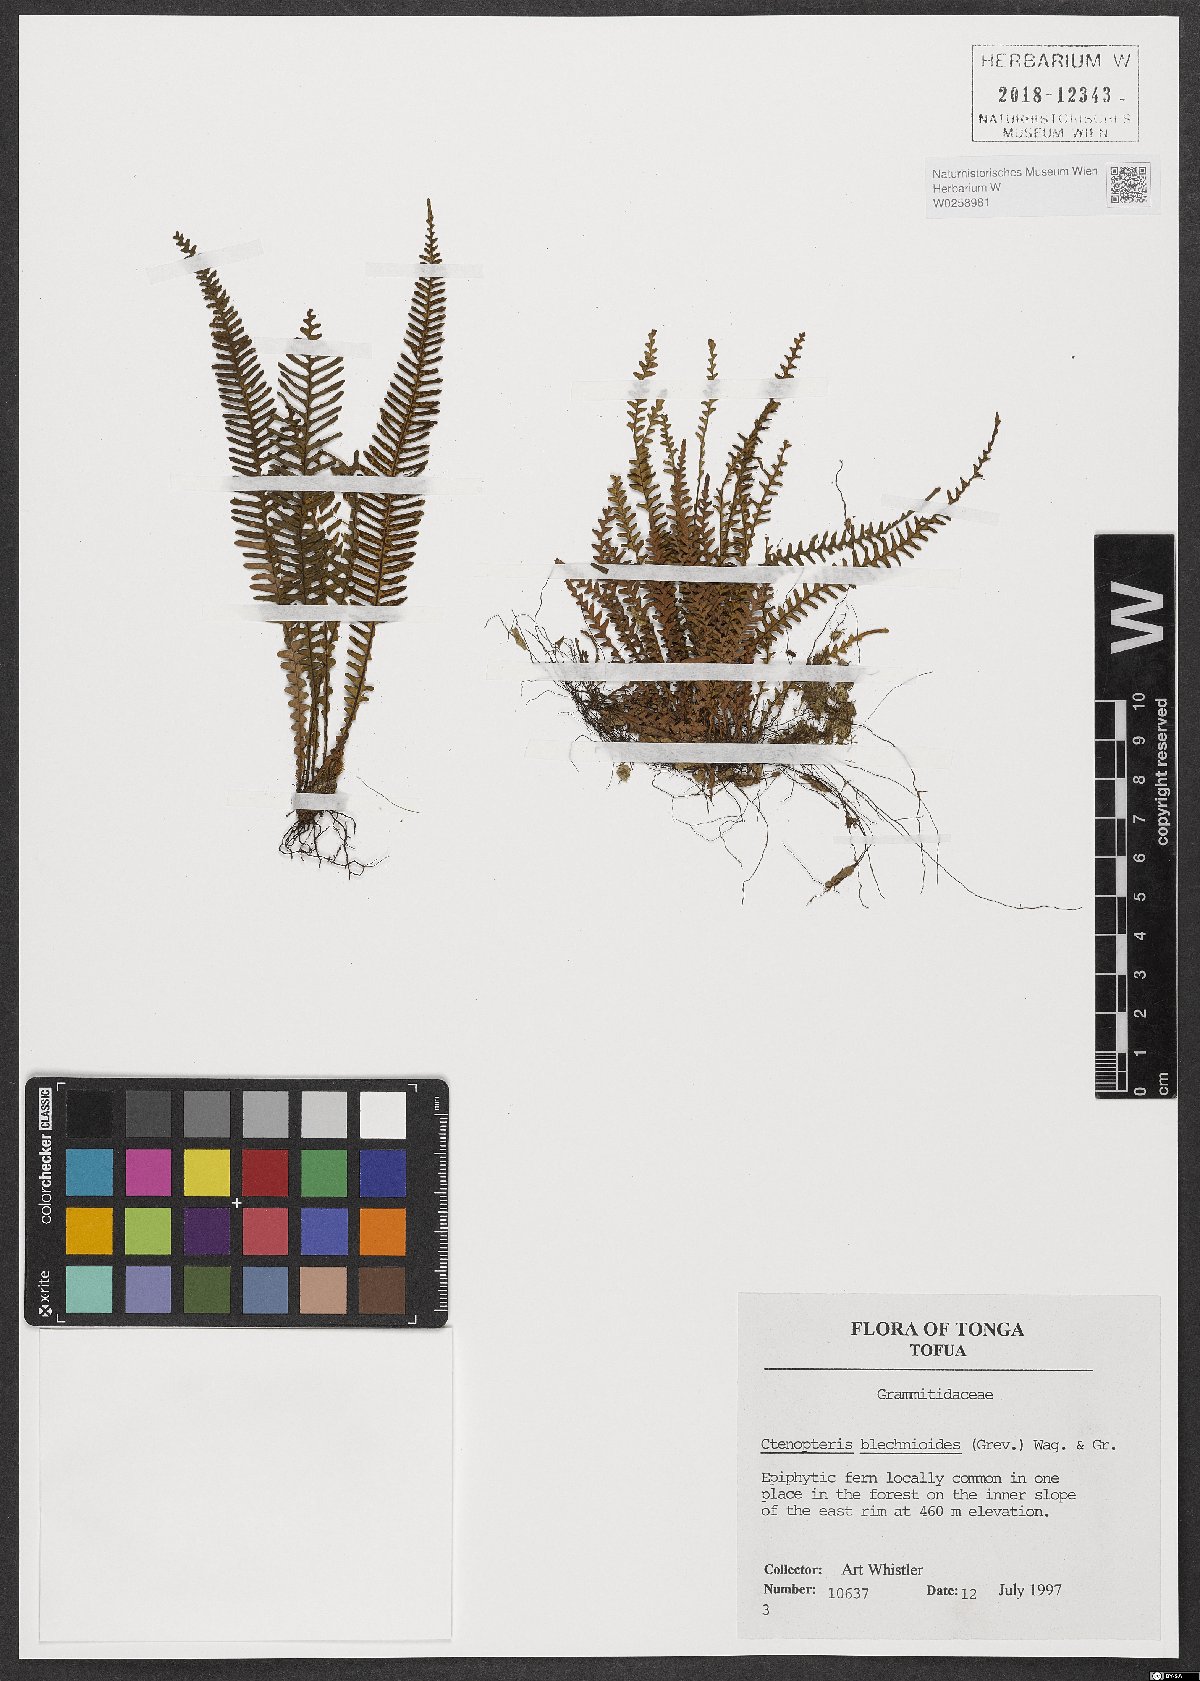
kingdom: Plantae
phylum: Tracheophyta
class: Polypodiopsida
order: Polypodiales
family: Polypodiaceae
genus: Ctenopterella
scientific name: Ctenopterella blechnoides
